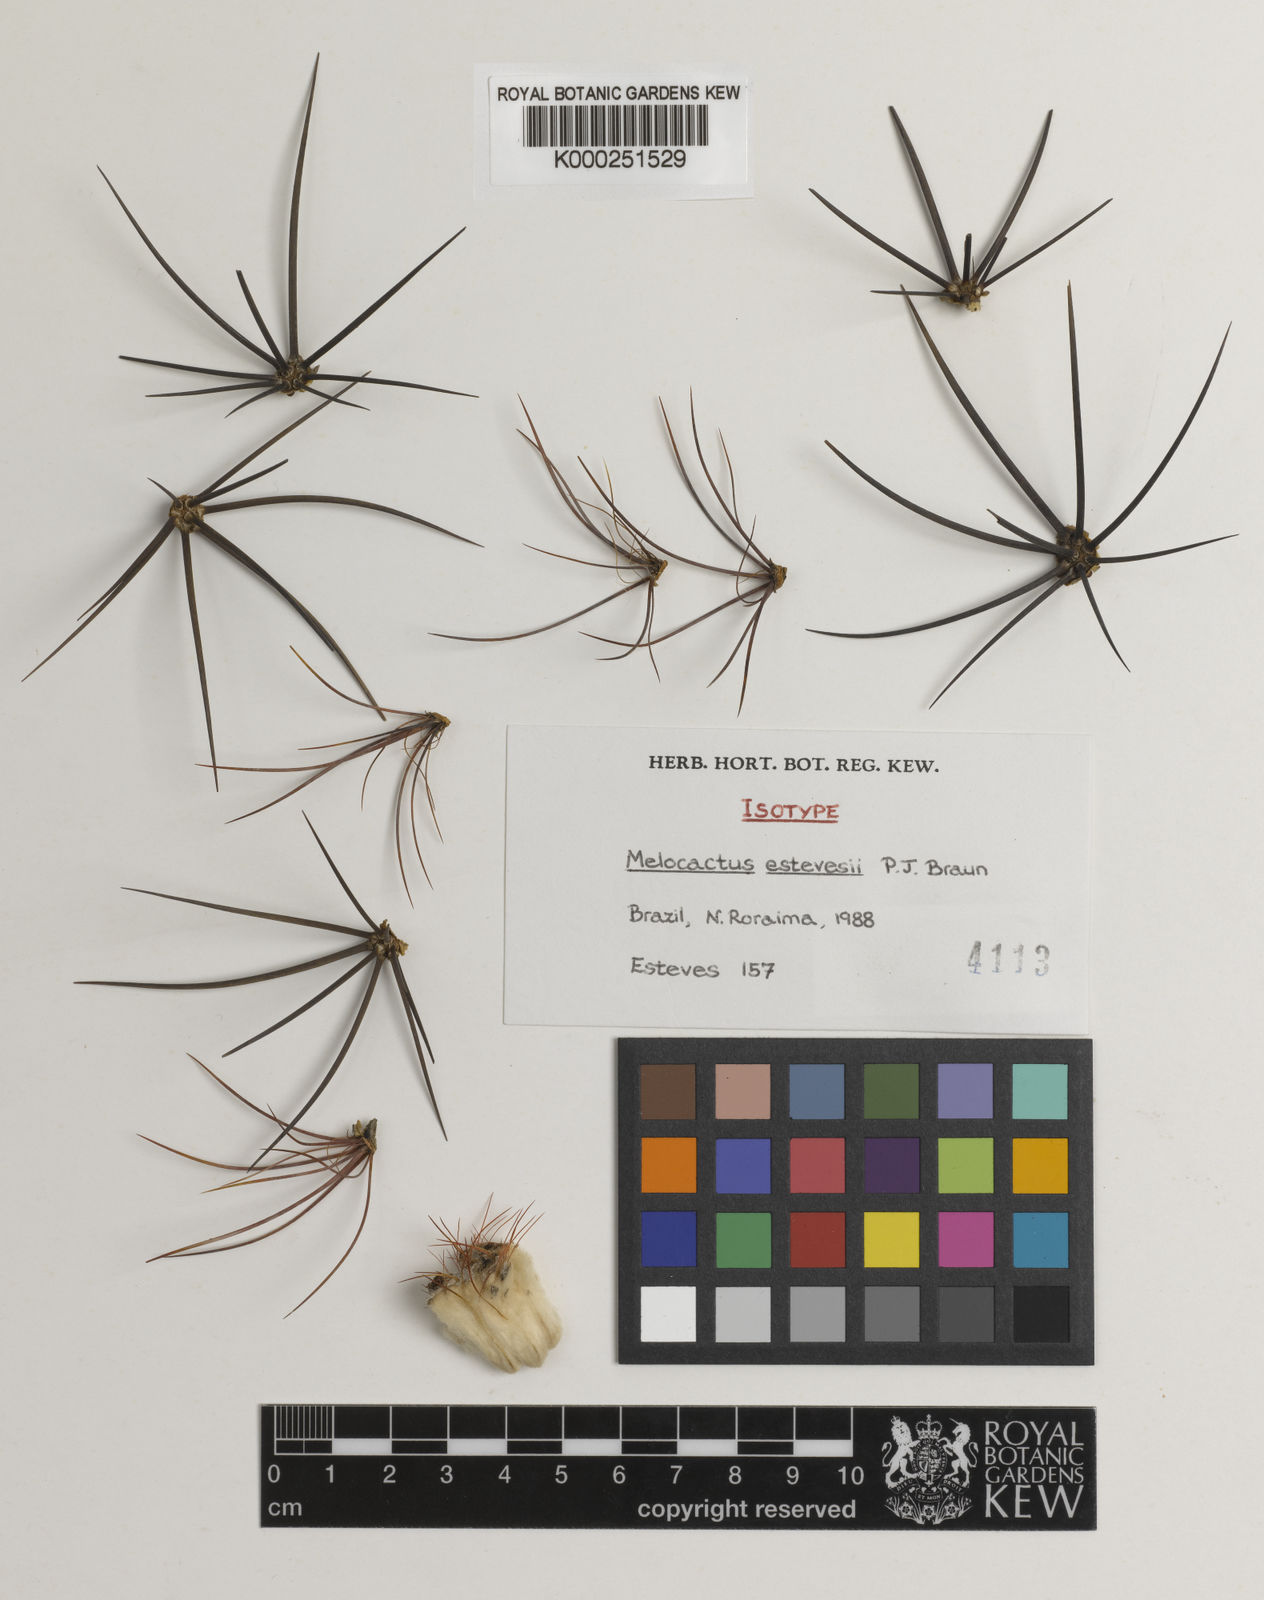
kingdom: Plantae
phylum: Tracheophyta
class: Magnoliopsida
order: Caryophyllales
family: Cactaceae
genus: Melocactus
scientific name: Melocactus estevesii
